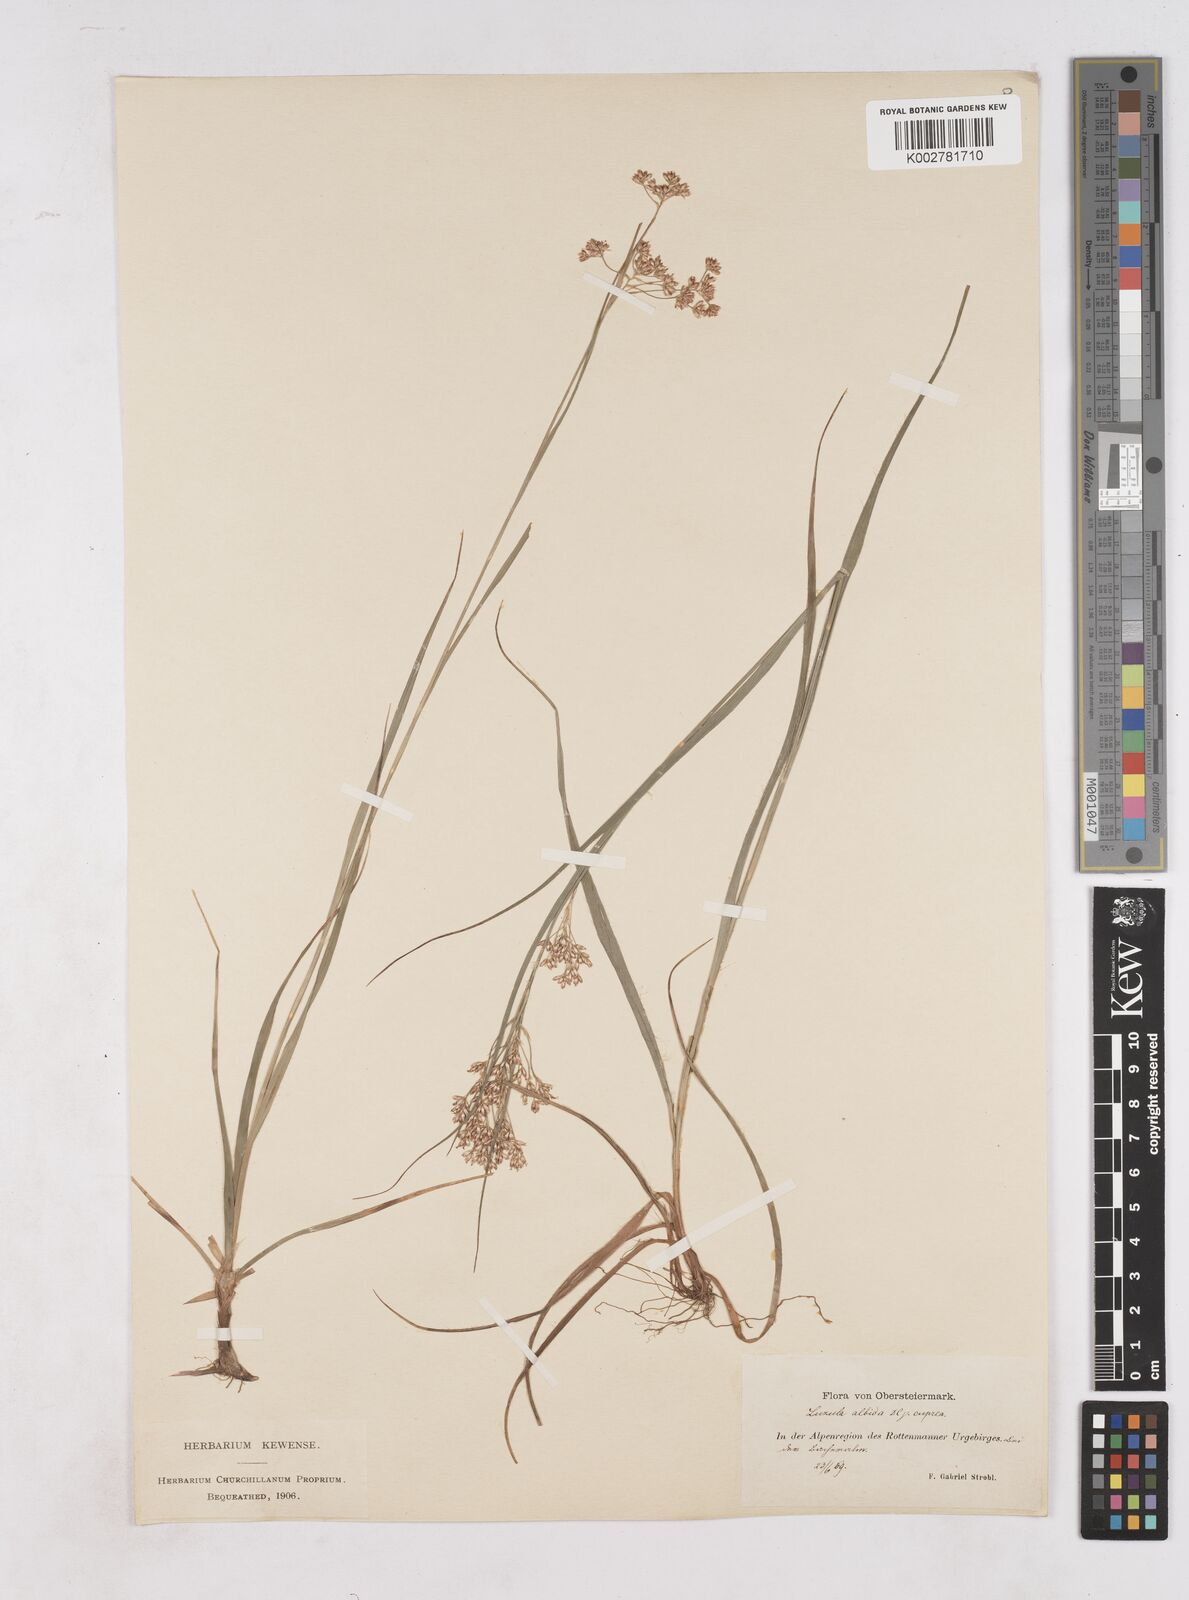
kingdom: Plantae
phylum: Tracheophyta
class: Liliopsida
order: Poales
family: Juncaceae
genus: Luzula
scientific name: Luzula luzuloides
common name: White wood-rush
